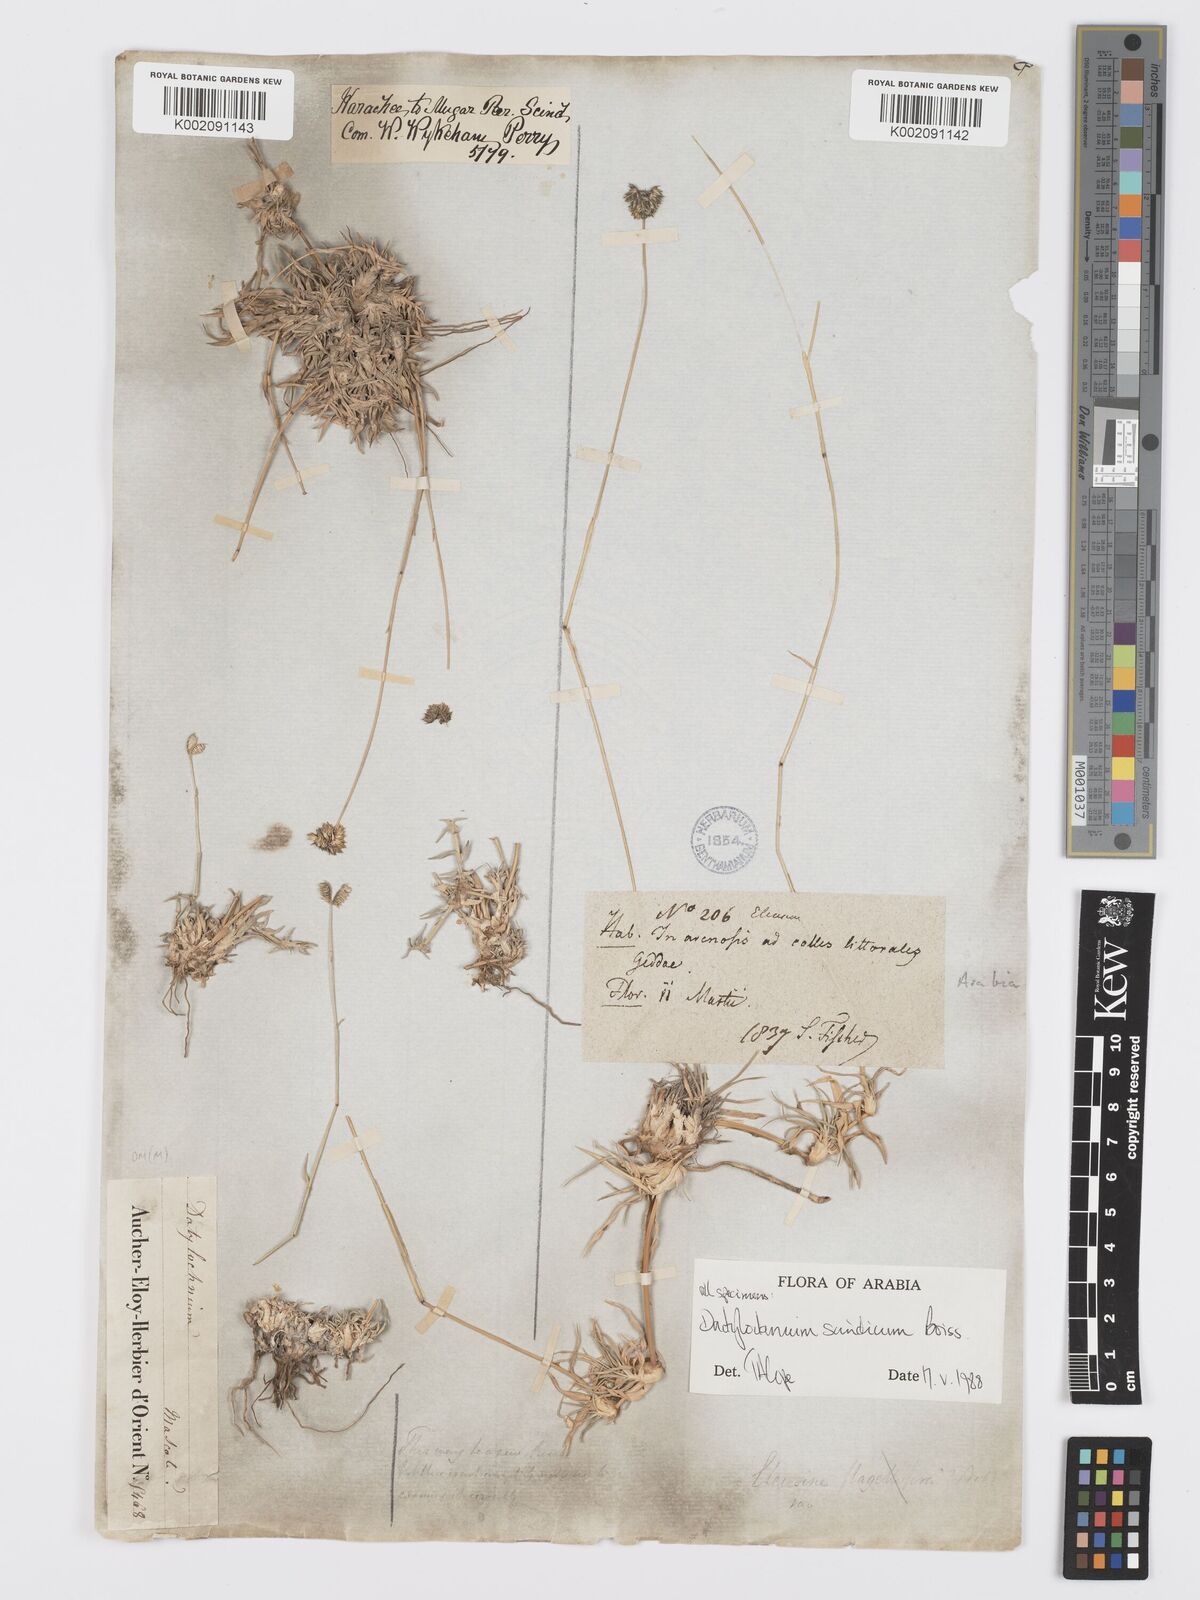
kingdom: Plantae
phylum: Tracheophyta
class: Liliopsida
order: Poales
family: Poaceae
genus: Dactyloctenium
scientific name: Dactyloctenium scindicum
